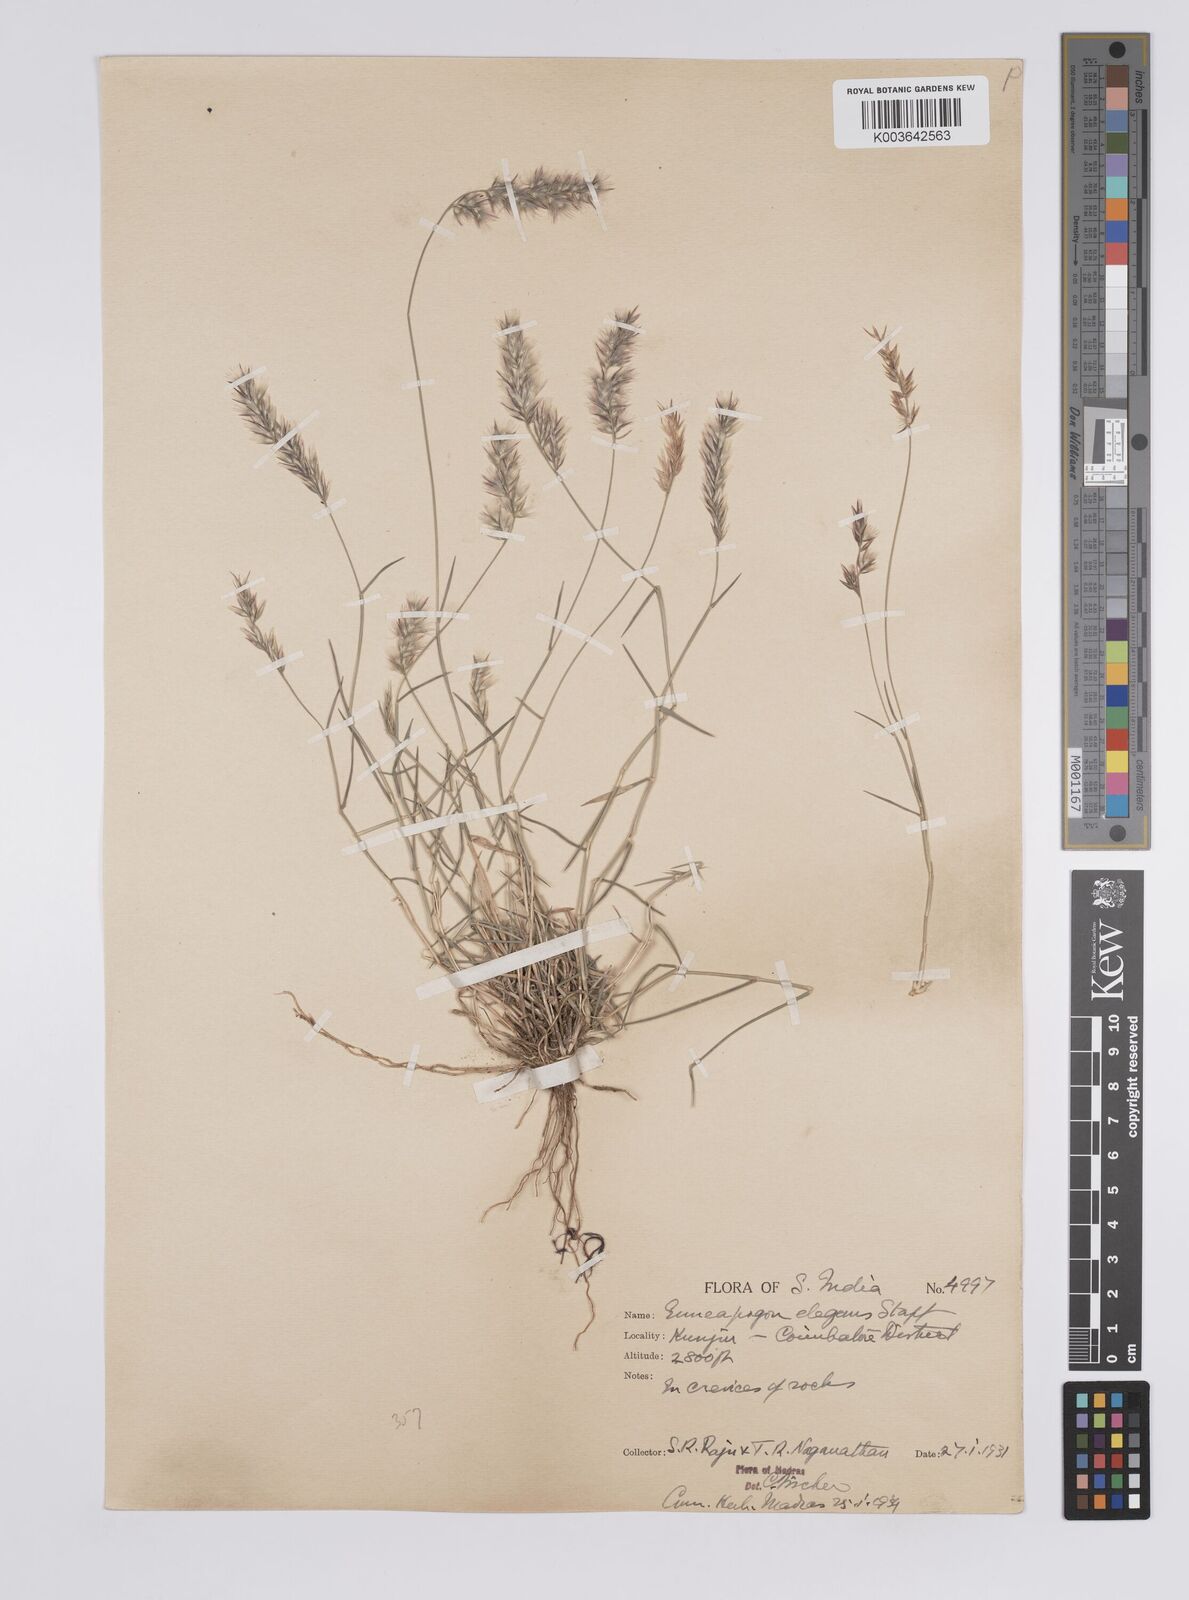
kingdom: Plantae
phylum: Tracheophyta
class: Liliopsida
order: Poales
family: Poaceae
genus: Enneapogon
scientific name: Enneapogon persicus
